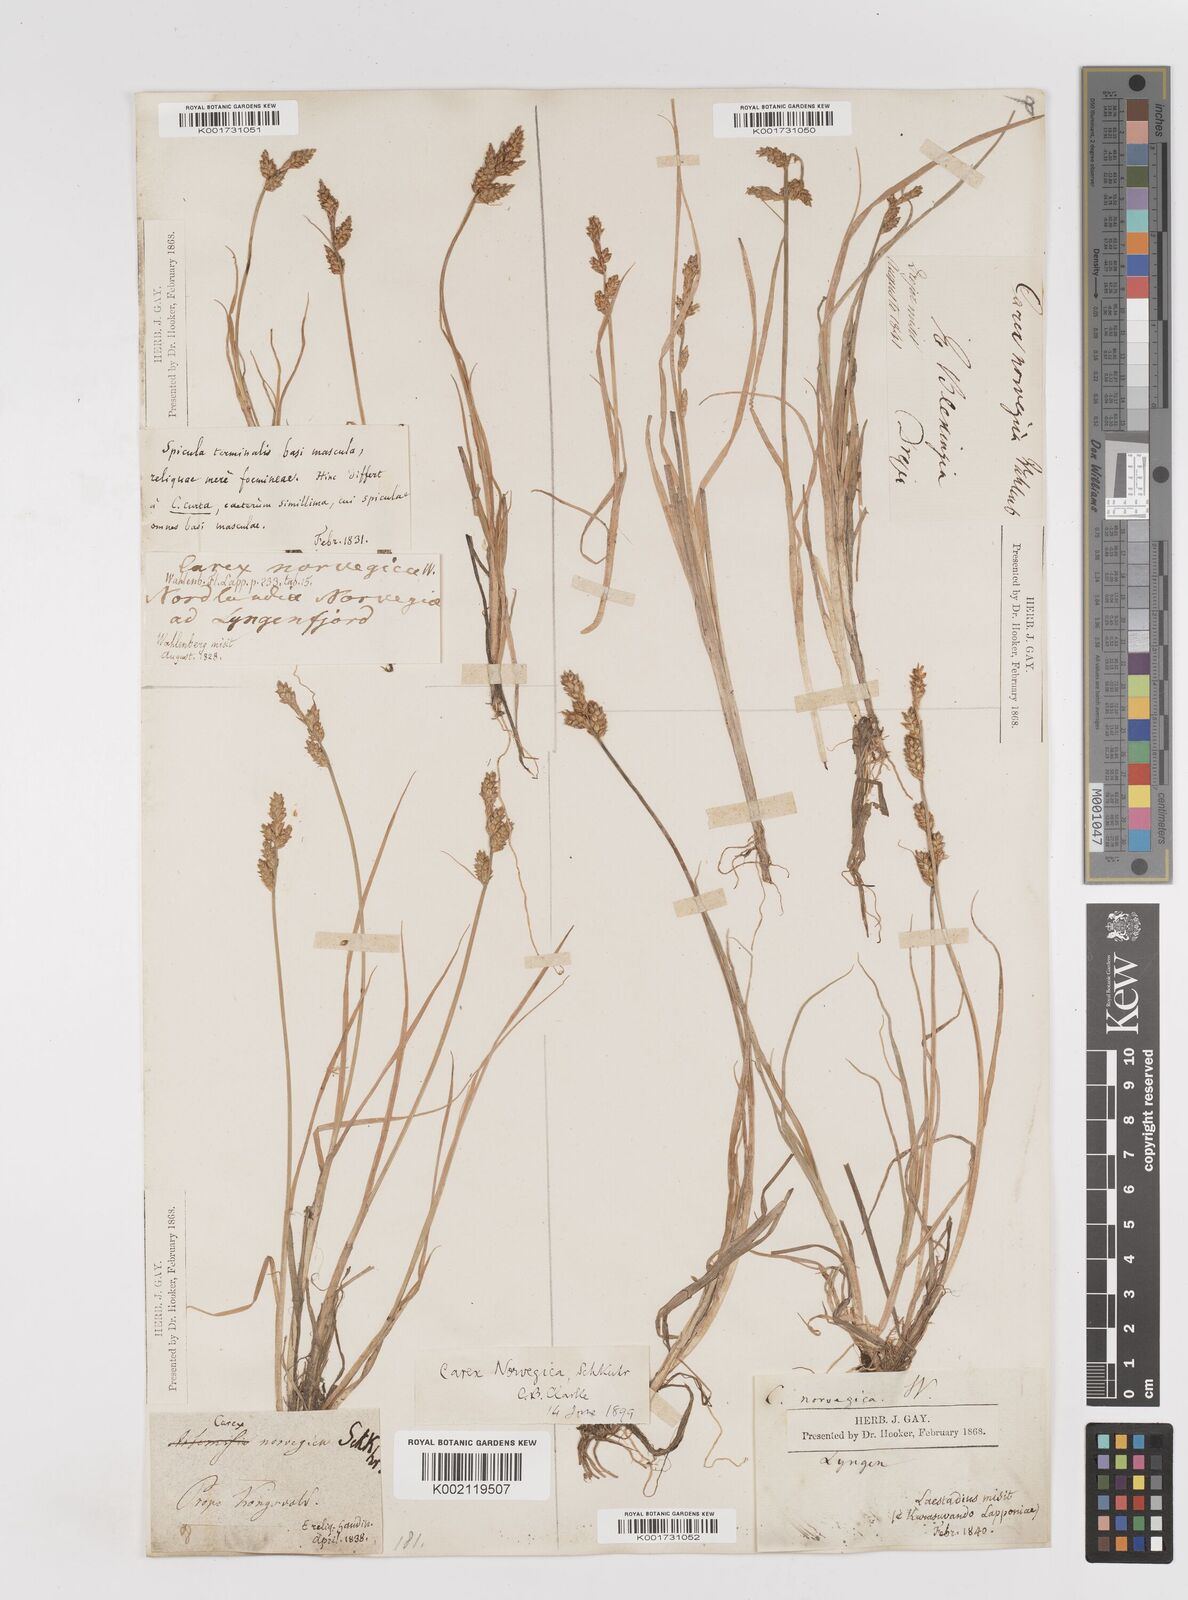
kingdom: Plantae
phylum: Tracheophyta
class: Liliopsida
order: Poales
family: Cyperaceae
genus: Carex
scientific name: Carex mackenziei
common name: Mackenzie's sedge
